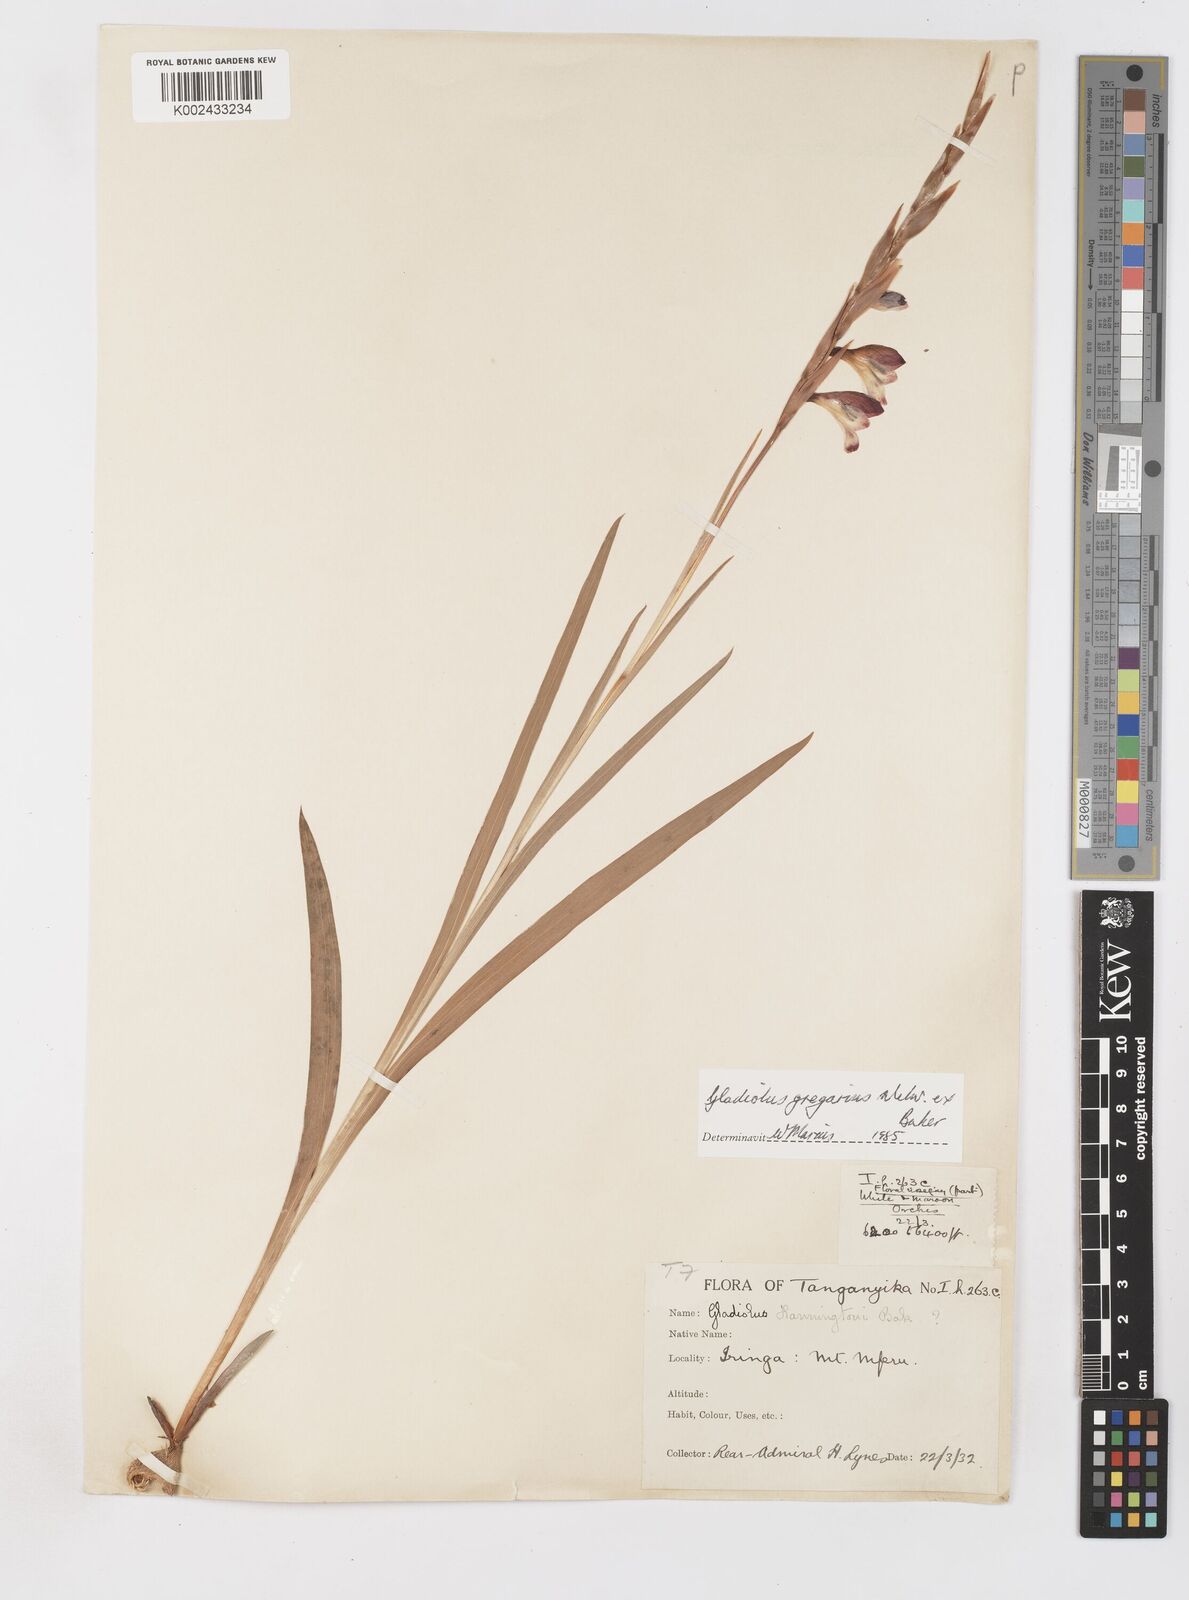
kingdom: Plantae
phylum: Tracheophyta
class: Liliopsida
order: Asparagales
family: Iridaceae
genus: Gladiolus
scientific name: Gladiolus gregarius
